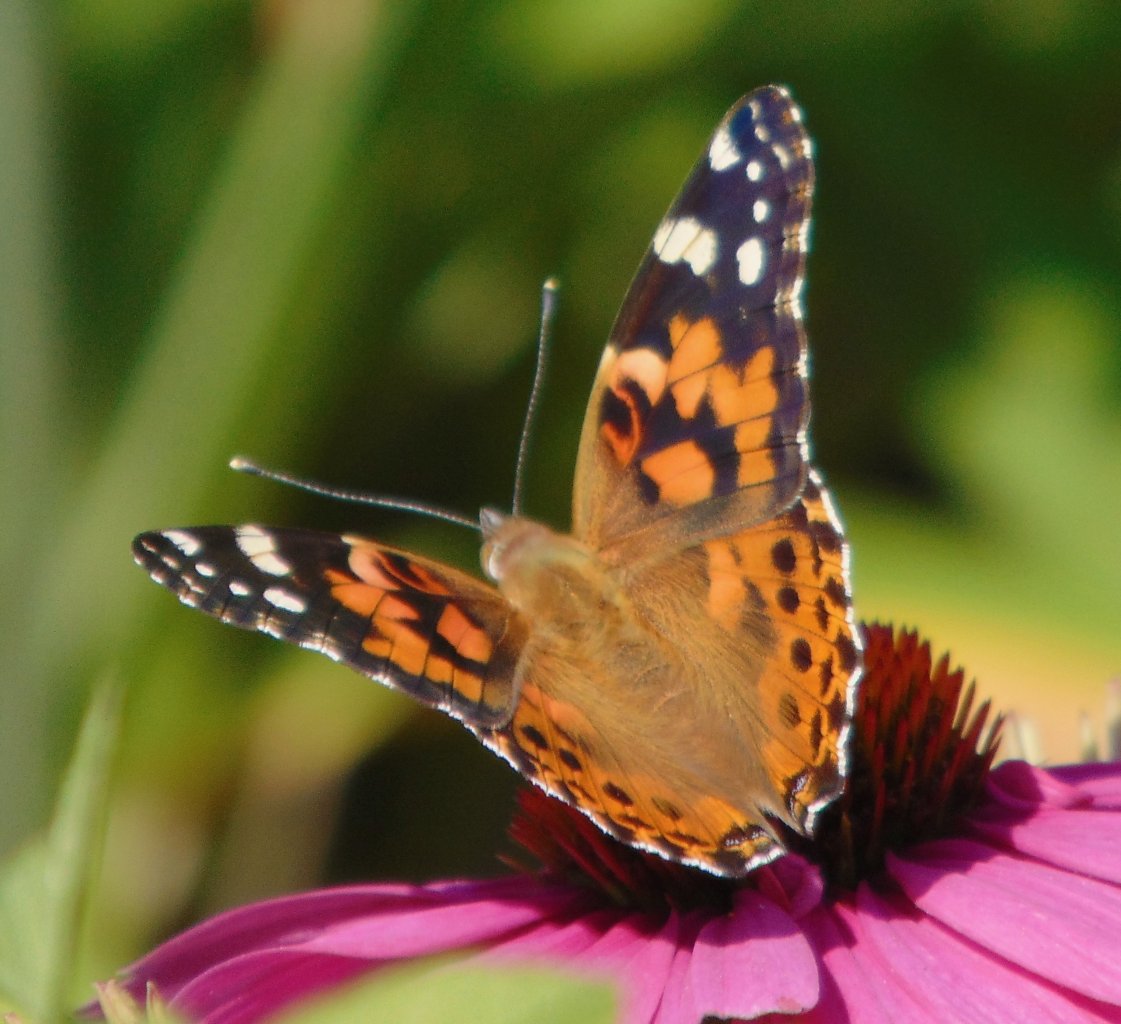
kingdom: Animalia
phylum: Arthropoda
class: Insecta
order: Lepidoptera
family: Nymphalidae
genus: Vanessa
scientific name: Vanessa cardui
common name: Painted Lady
